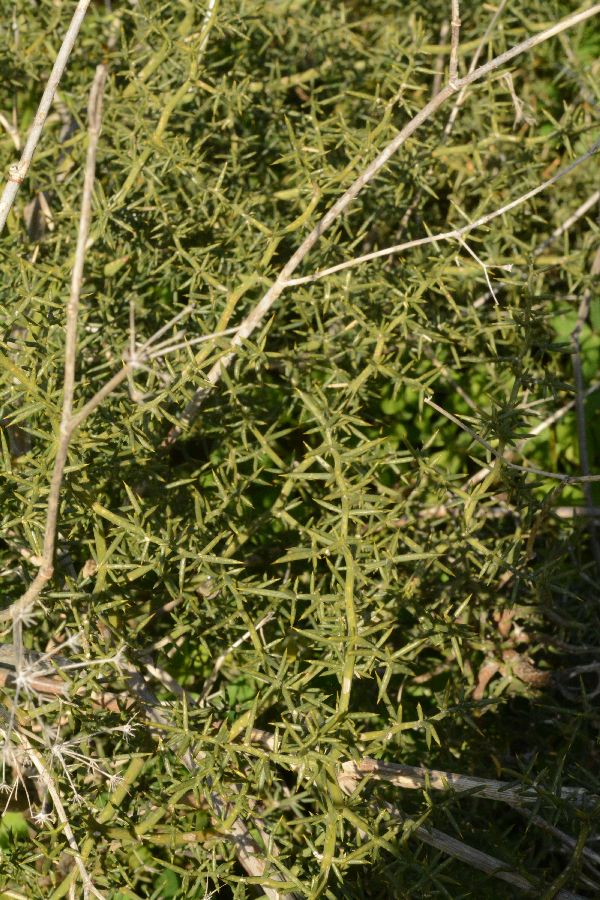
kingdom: Plantae
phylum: Tracheophyta
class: Liliopsida
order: Asparagales
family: Asparagaceae
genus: Asparagus
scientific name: Asparagus aphyllus
